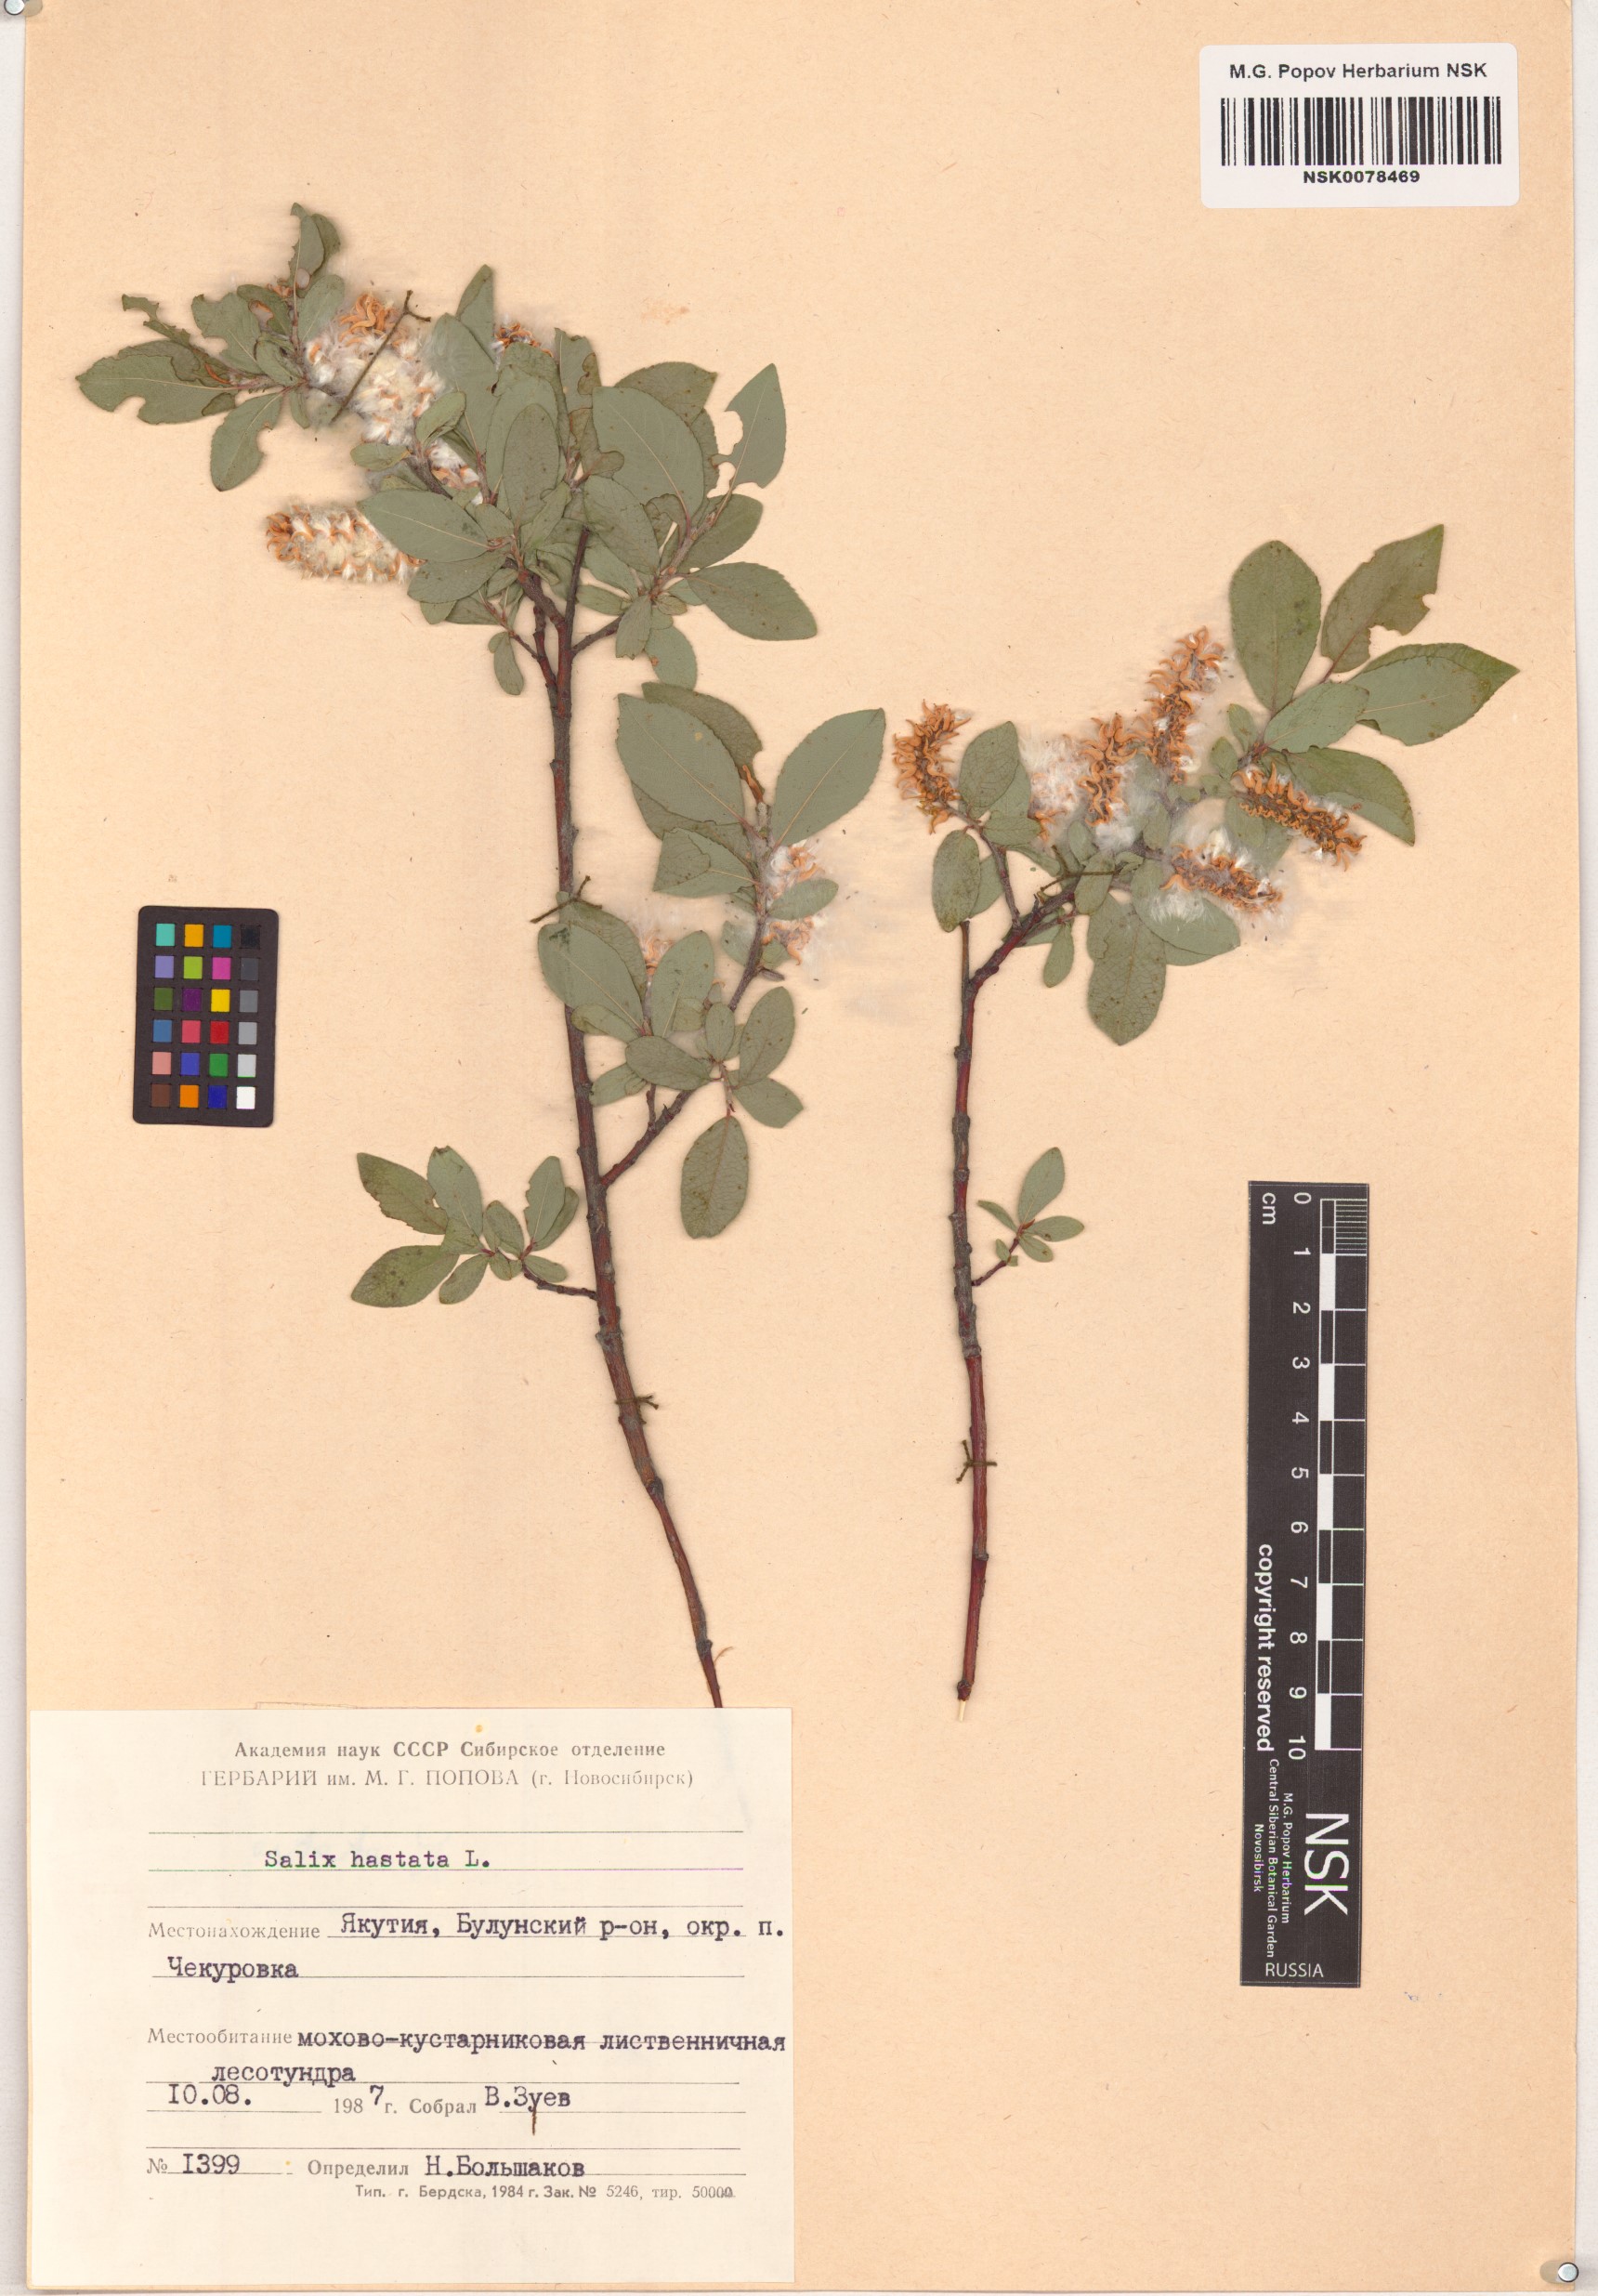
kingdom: Plantae
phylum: Tracheophyta
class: Magnoliopsida
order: Malpighiales
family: Salicaceae
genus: Salix
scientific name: Salix hastata
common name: Halberd willow
